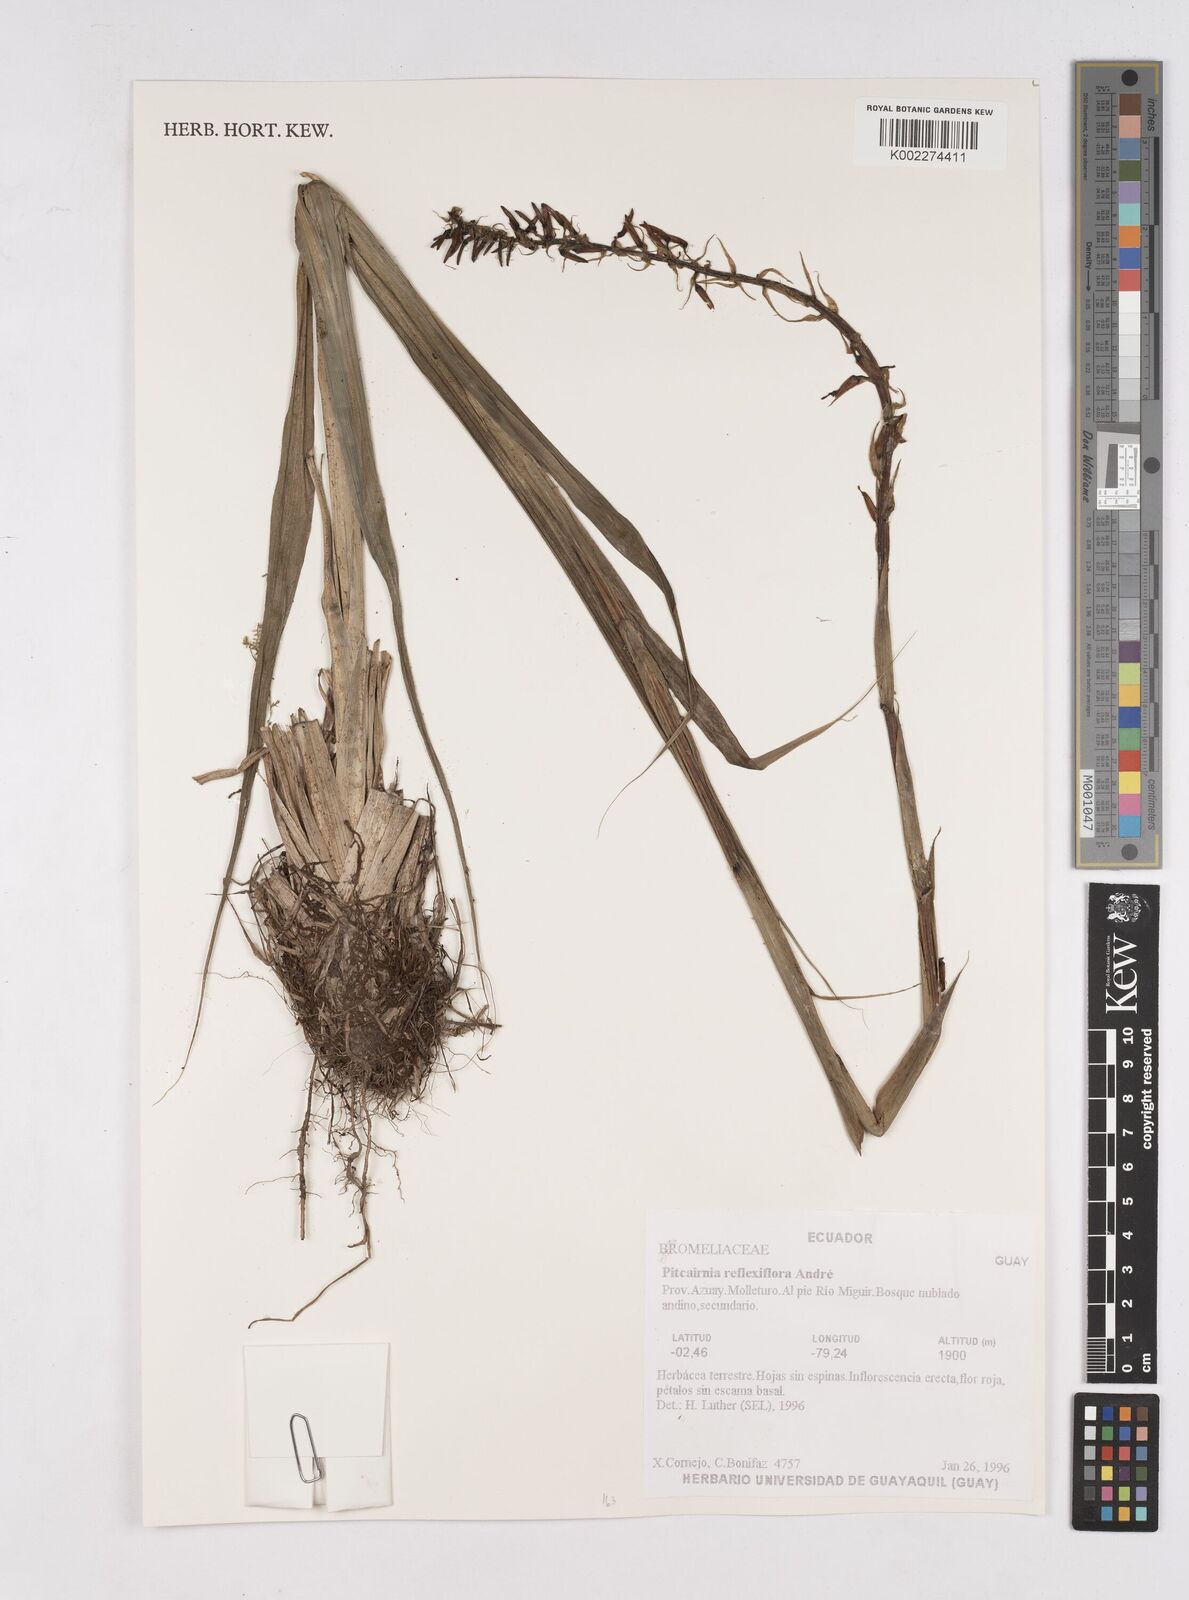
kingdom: Plantae
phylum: Tracheophyta
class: Liliopsida
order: Poales
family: Bromeliaceae
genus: Pitcairnia
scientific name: Pitcairnia reflexiflora
